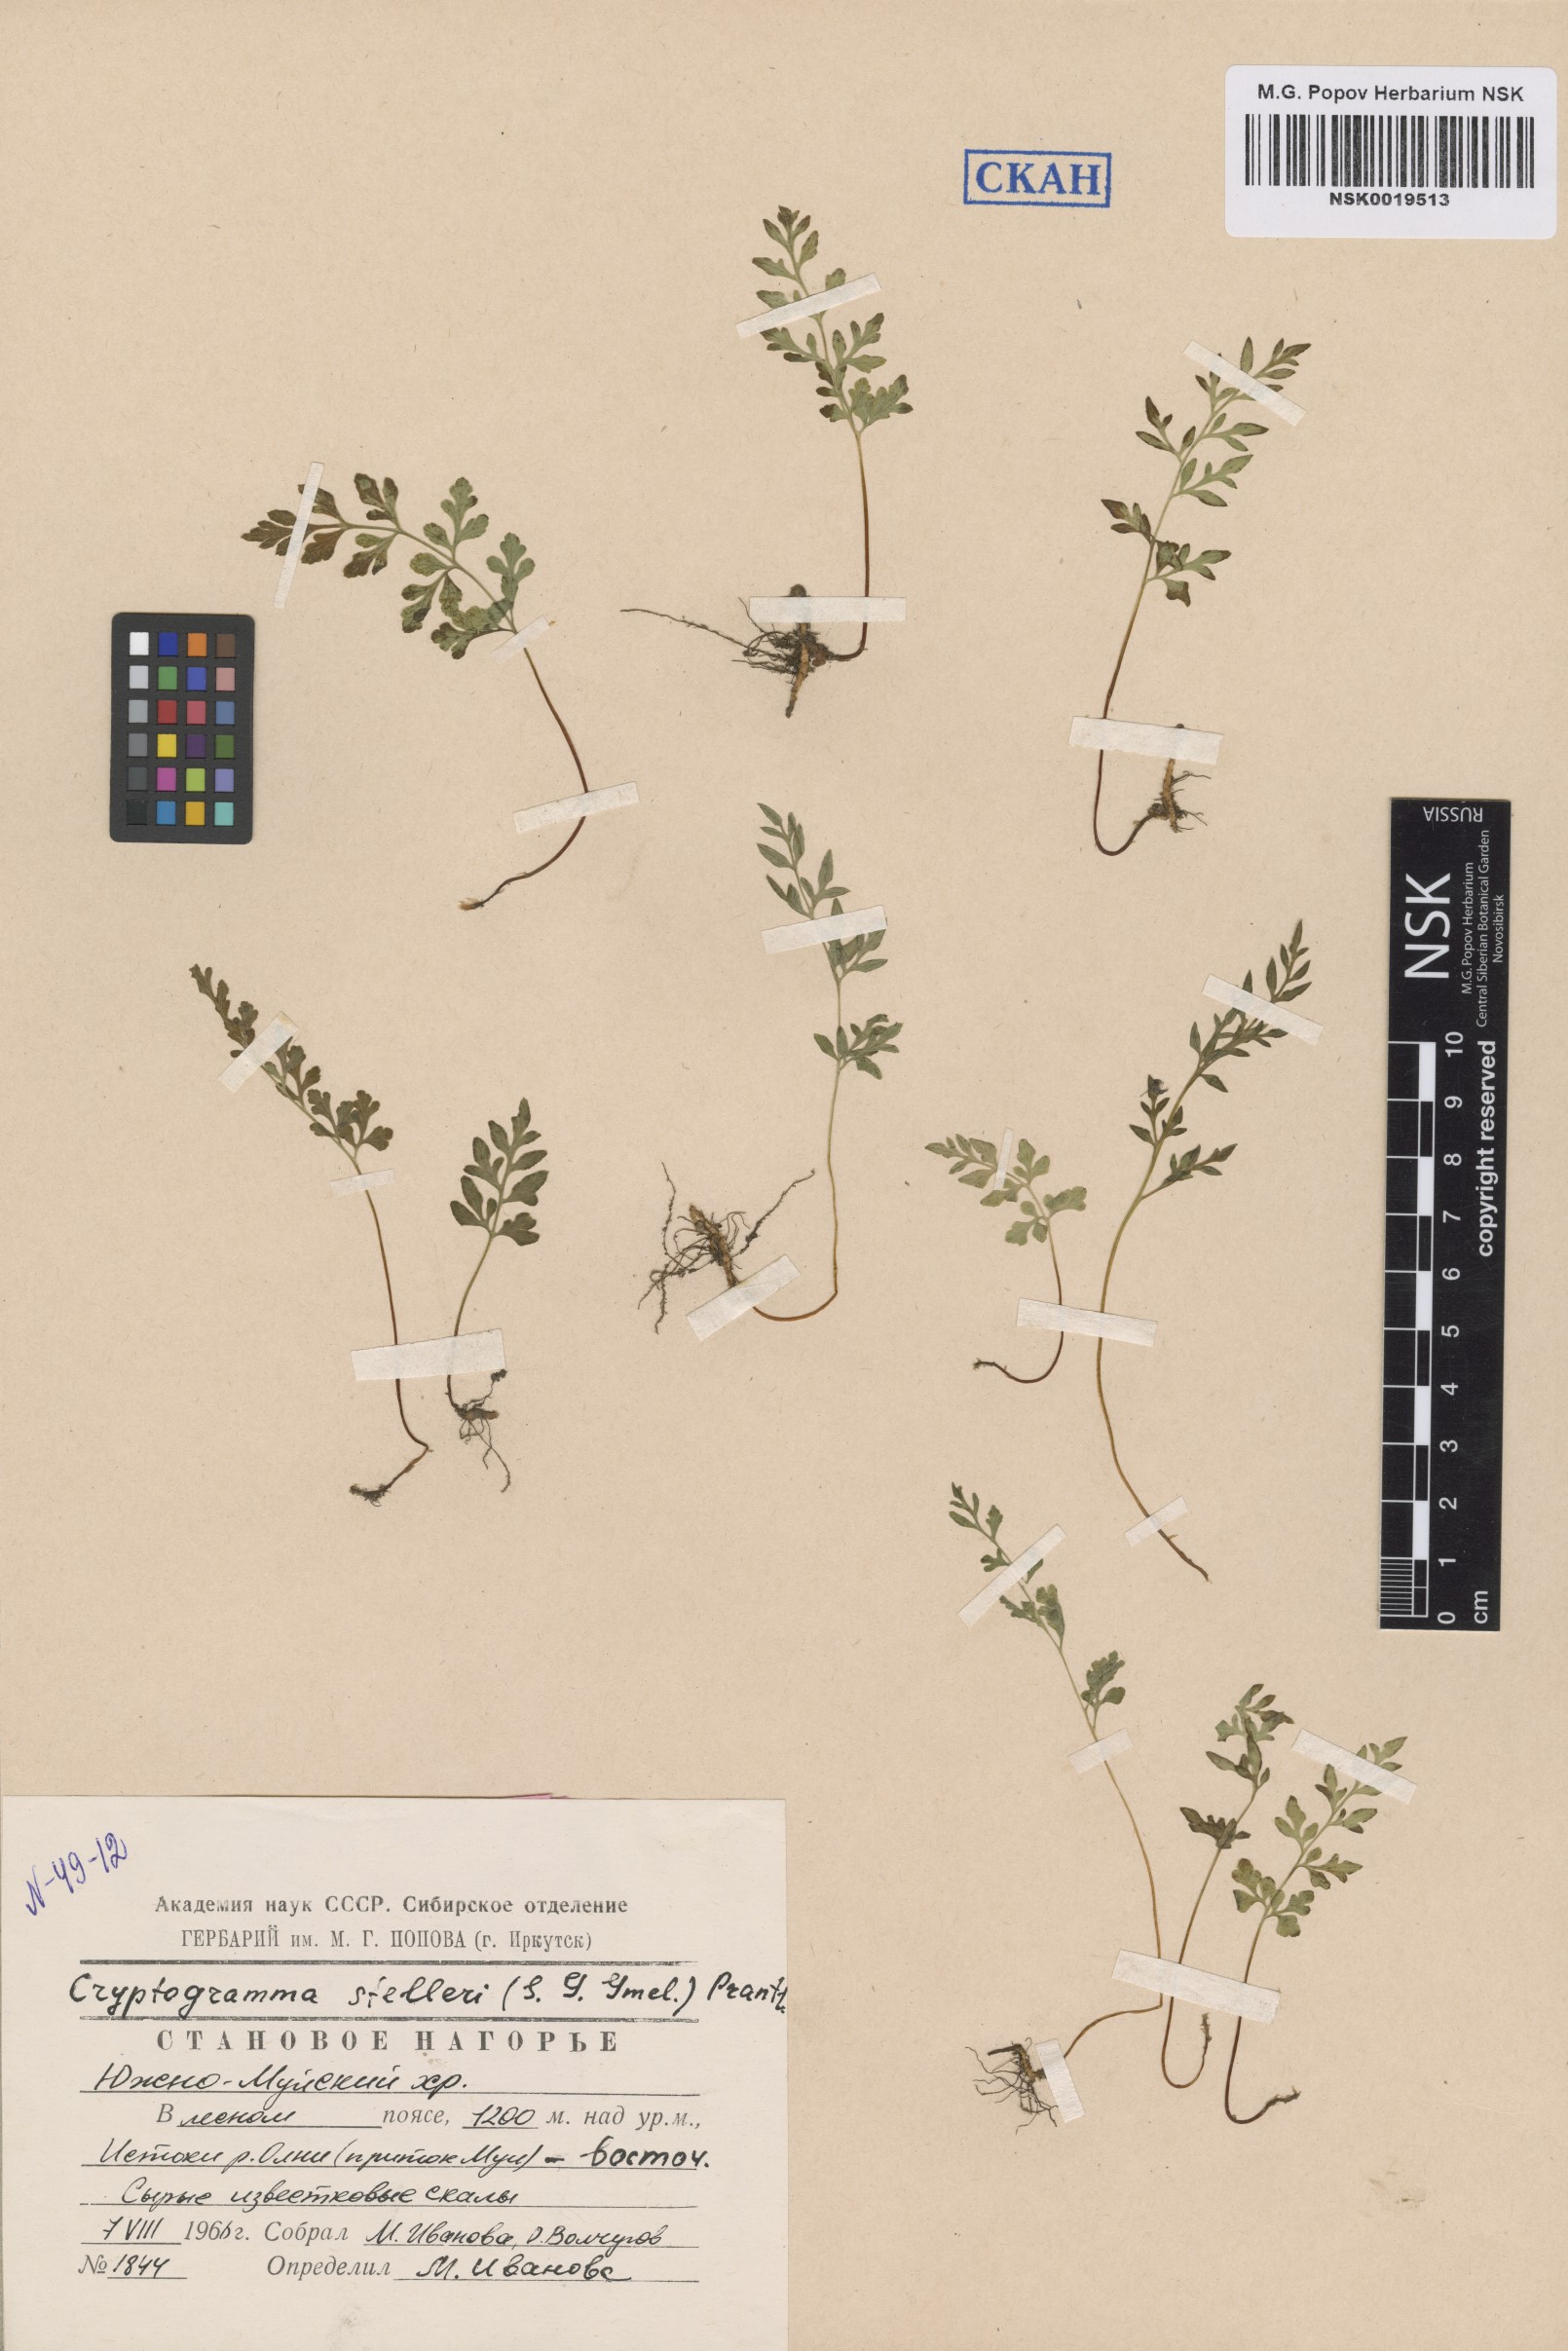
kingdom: Plantae
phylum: Tracheophyta
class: Polypodiopsida
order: Polypodiales
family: Pteridaceae
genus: Cryptogramma
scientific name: Cryptogramma stelleri
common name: Cliff-brake
